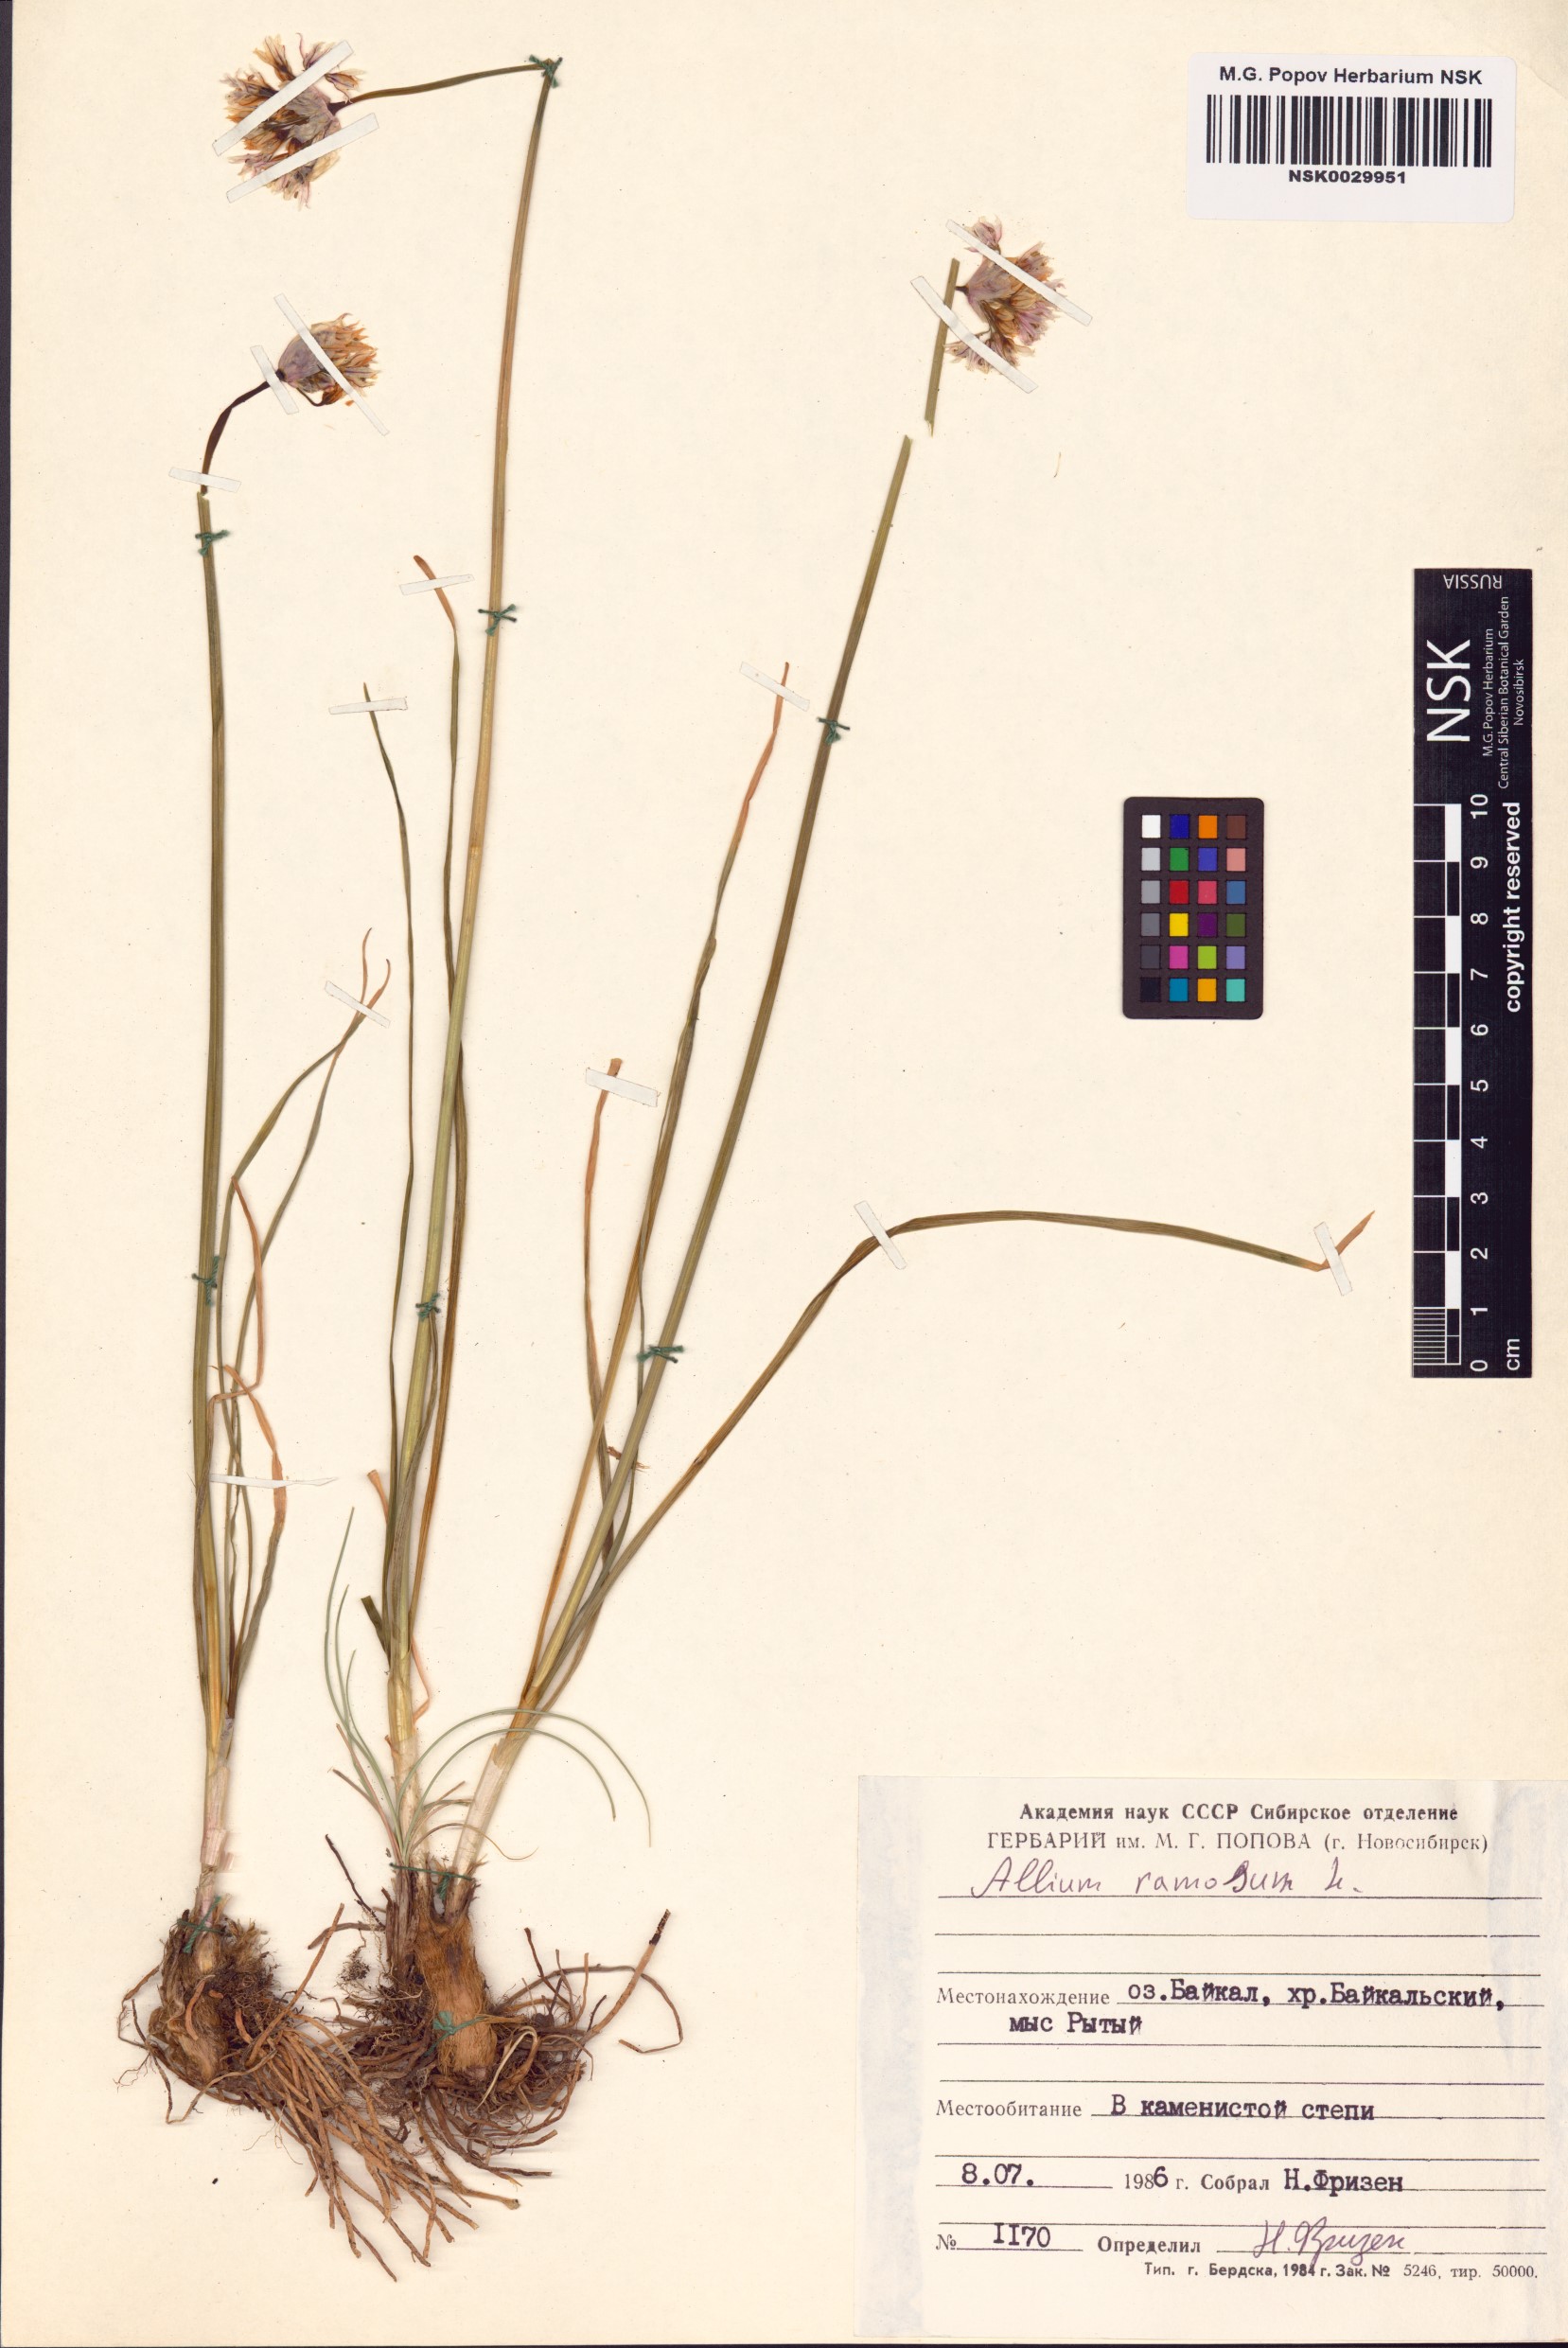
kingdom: Plantae
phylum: Tracheophyta
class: Liliopsida
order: Asparagales
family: Amaryllidaceae
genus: Allium
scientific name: Allium ramosum
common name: Fragrant garlic
